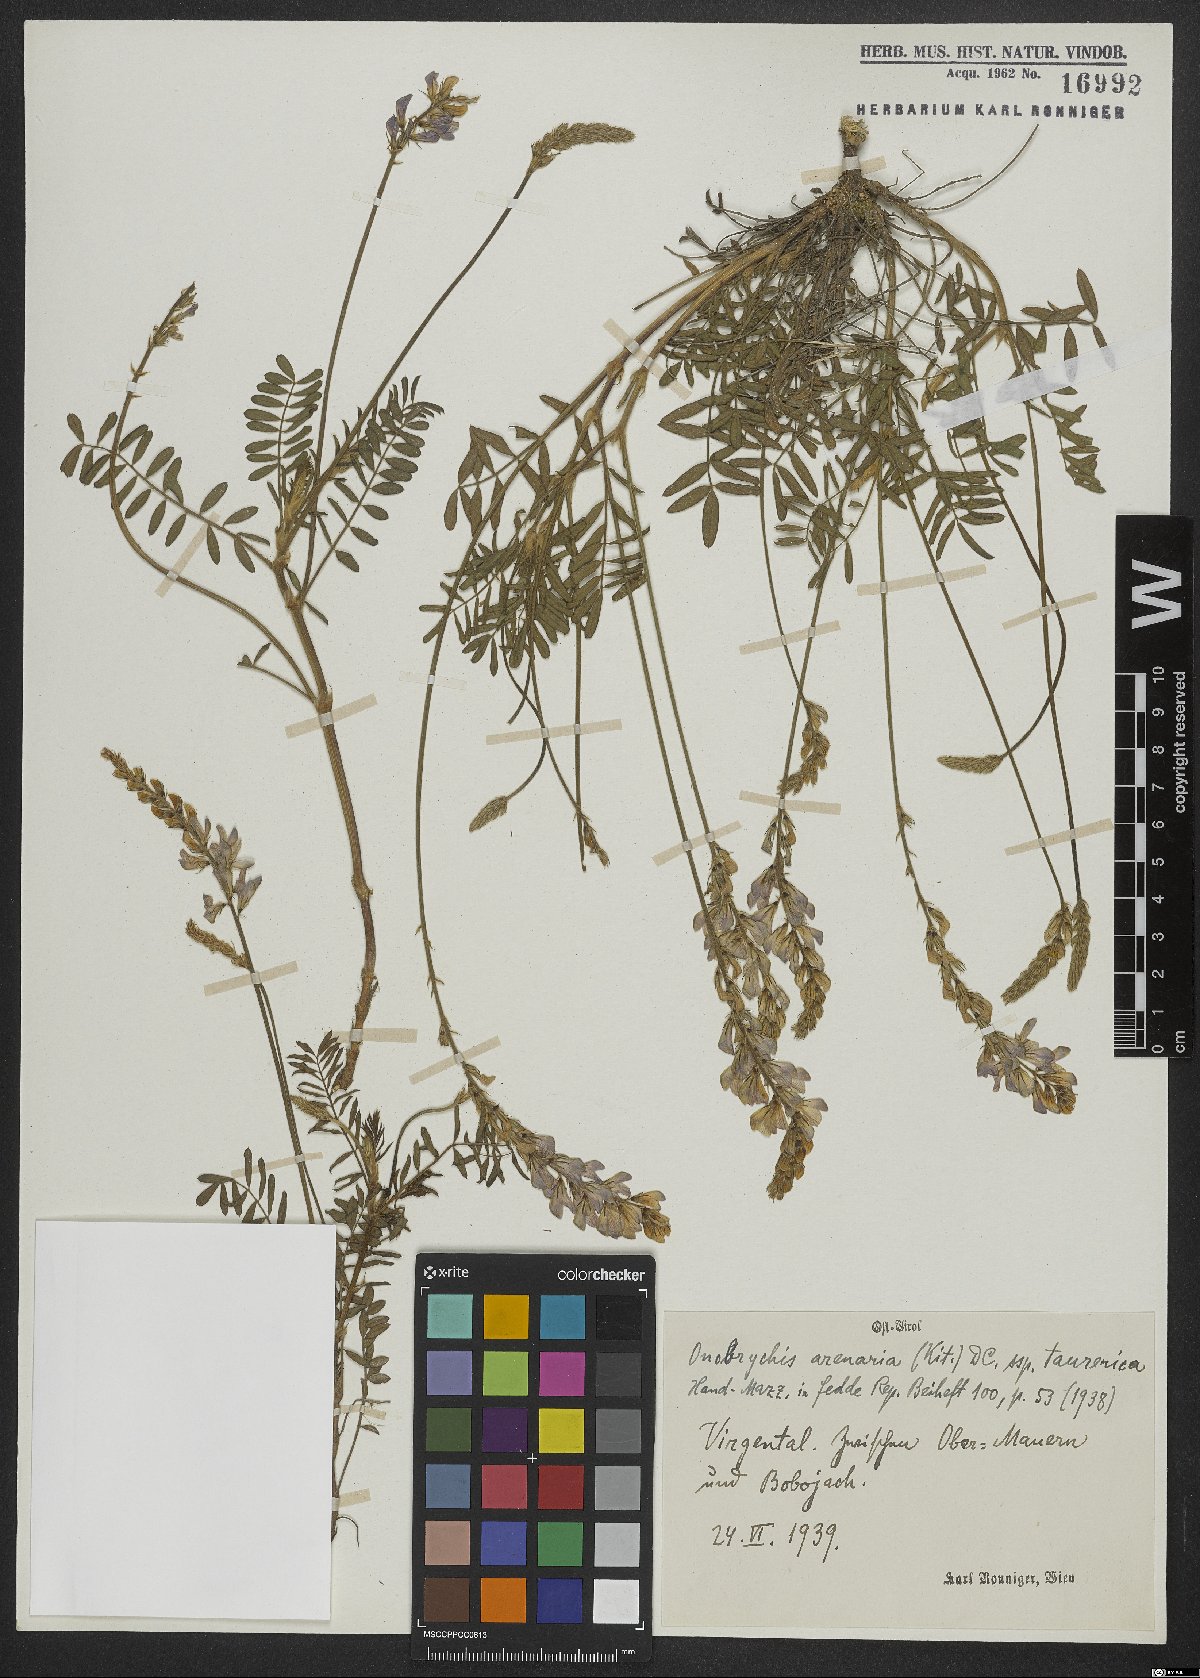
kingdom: Plantae
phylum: Tracheophyta
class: Magnoliopsida
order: Fabales
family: Fabaceae
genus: Onobrychis
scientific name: Onobrychis arenaria
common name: Sand esparcet
